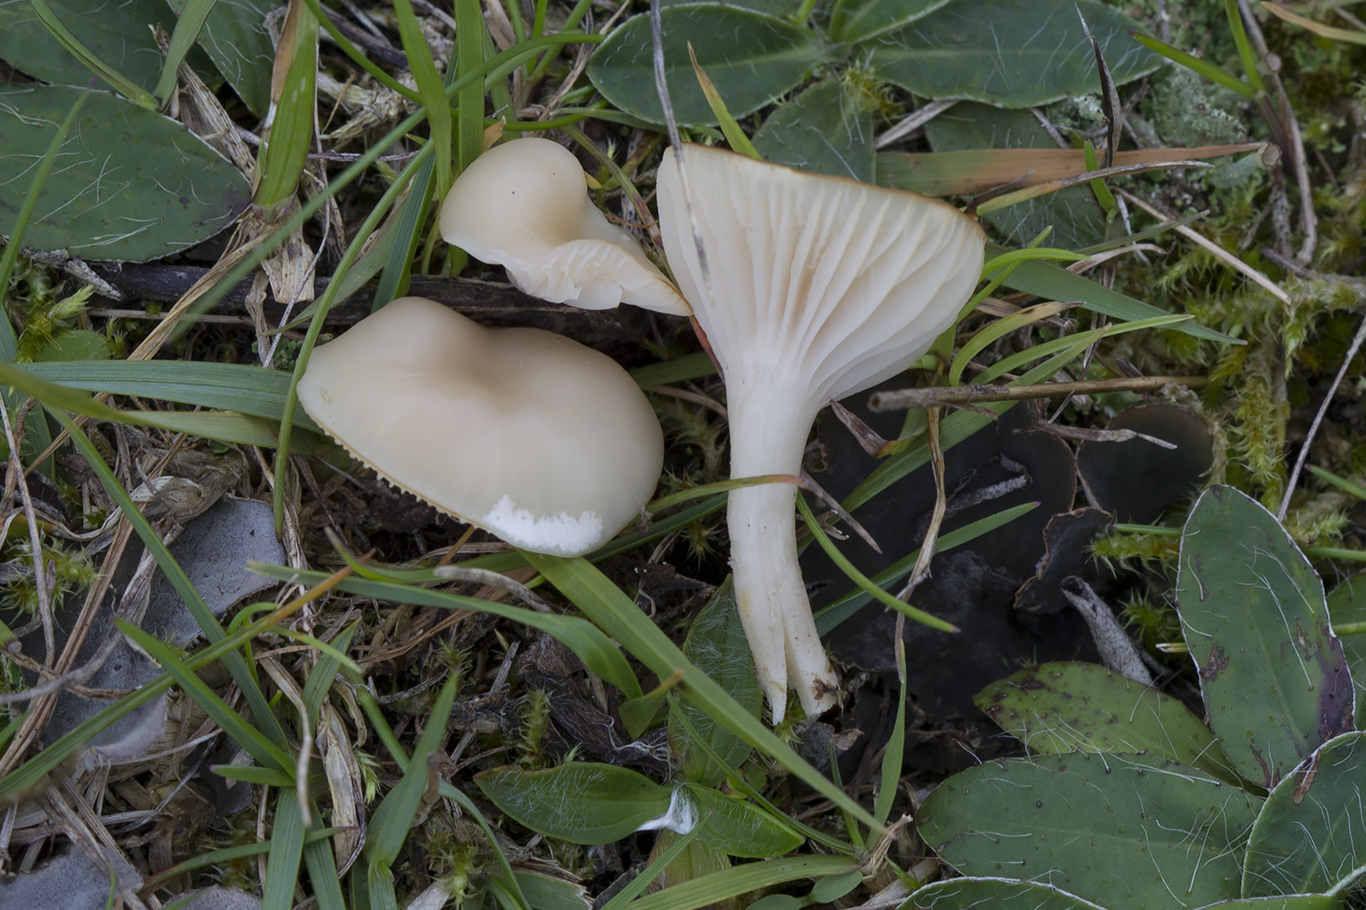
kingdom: Fungi
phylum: Basidiomycota
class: Agaricomycetes
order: Agaricales
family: Hygrophoraceae
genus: Cuphophyllus
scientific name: Cuphophyllus virgineus
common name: isabella-vokshat
